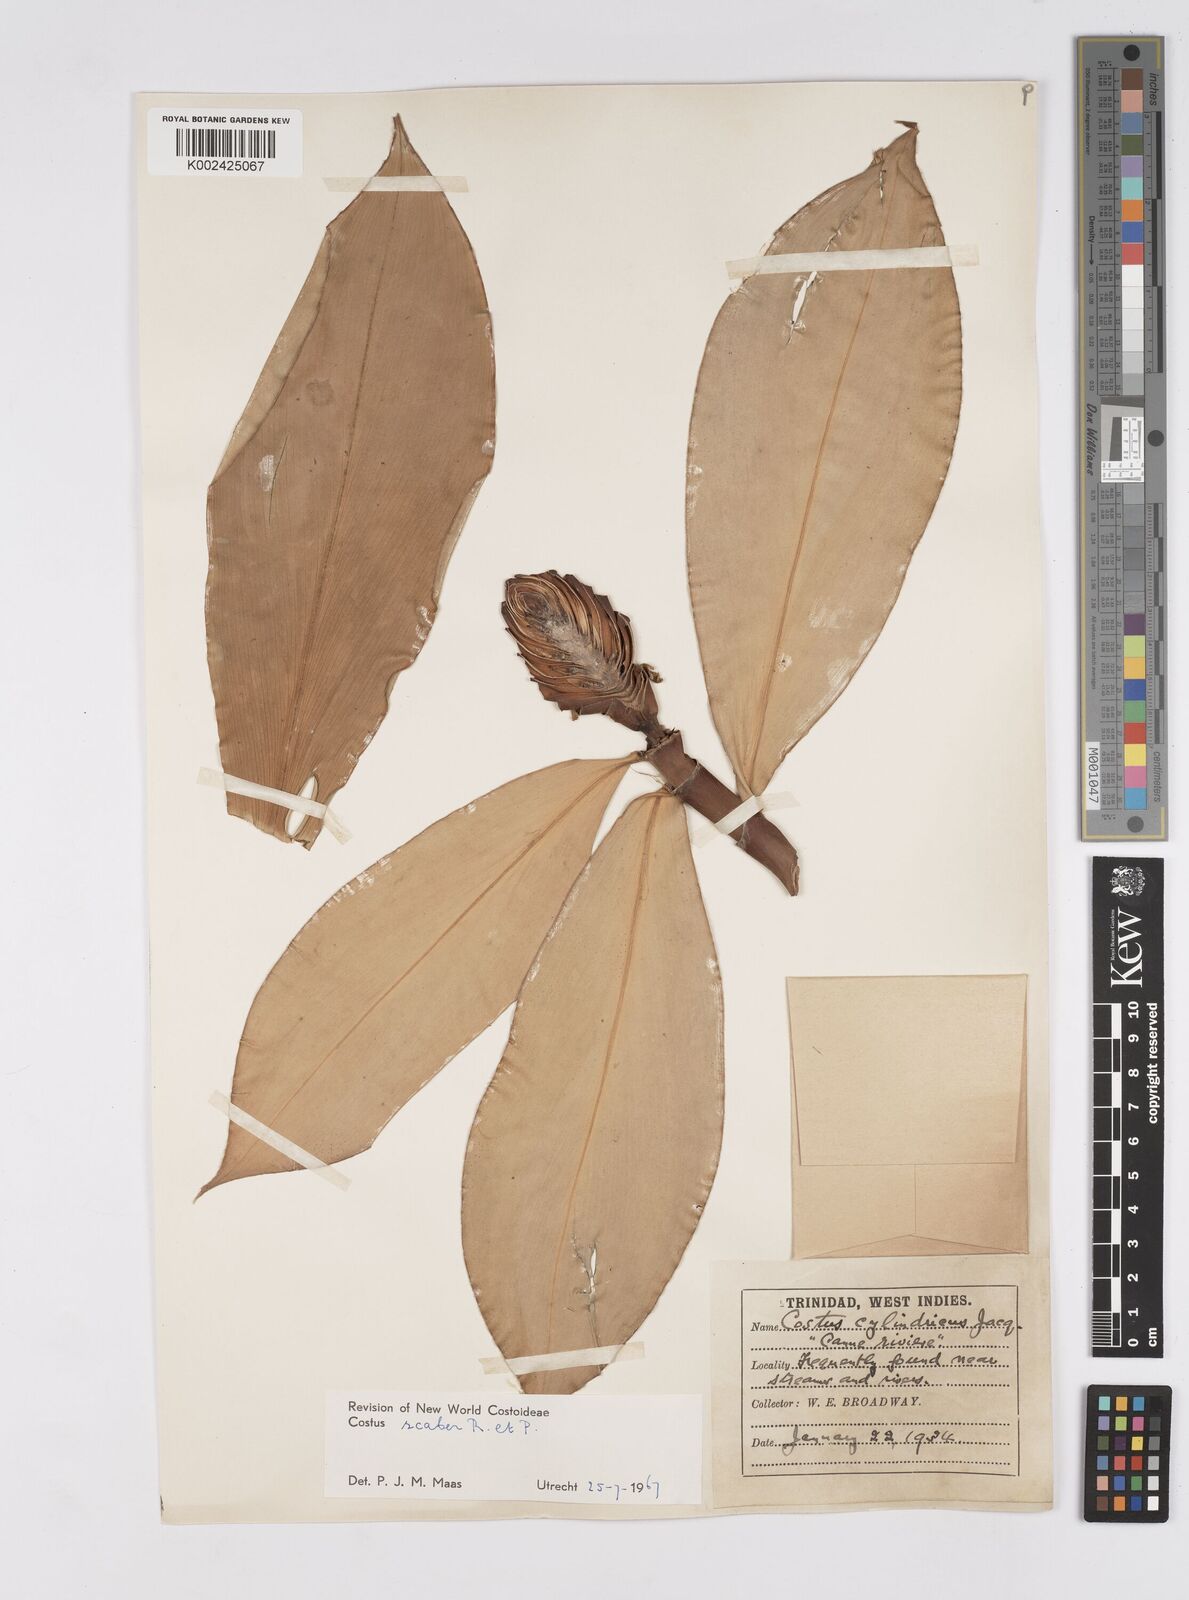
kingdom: Plantae
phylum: Tracheophyta
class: Liliopsida
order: Zingiberales
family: Costaceae
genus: Costus
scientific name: Costus scaber
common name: Spiral head ginger
